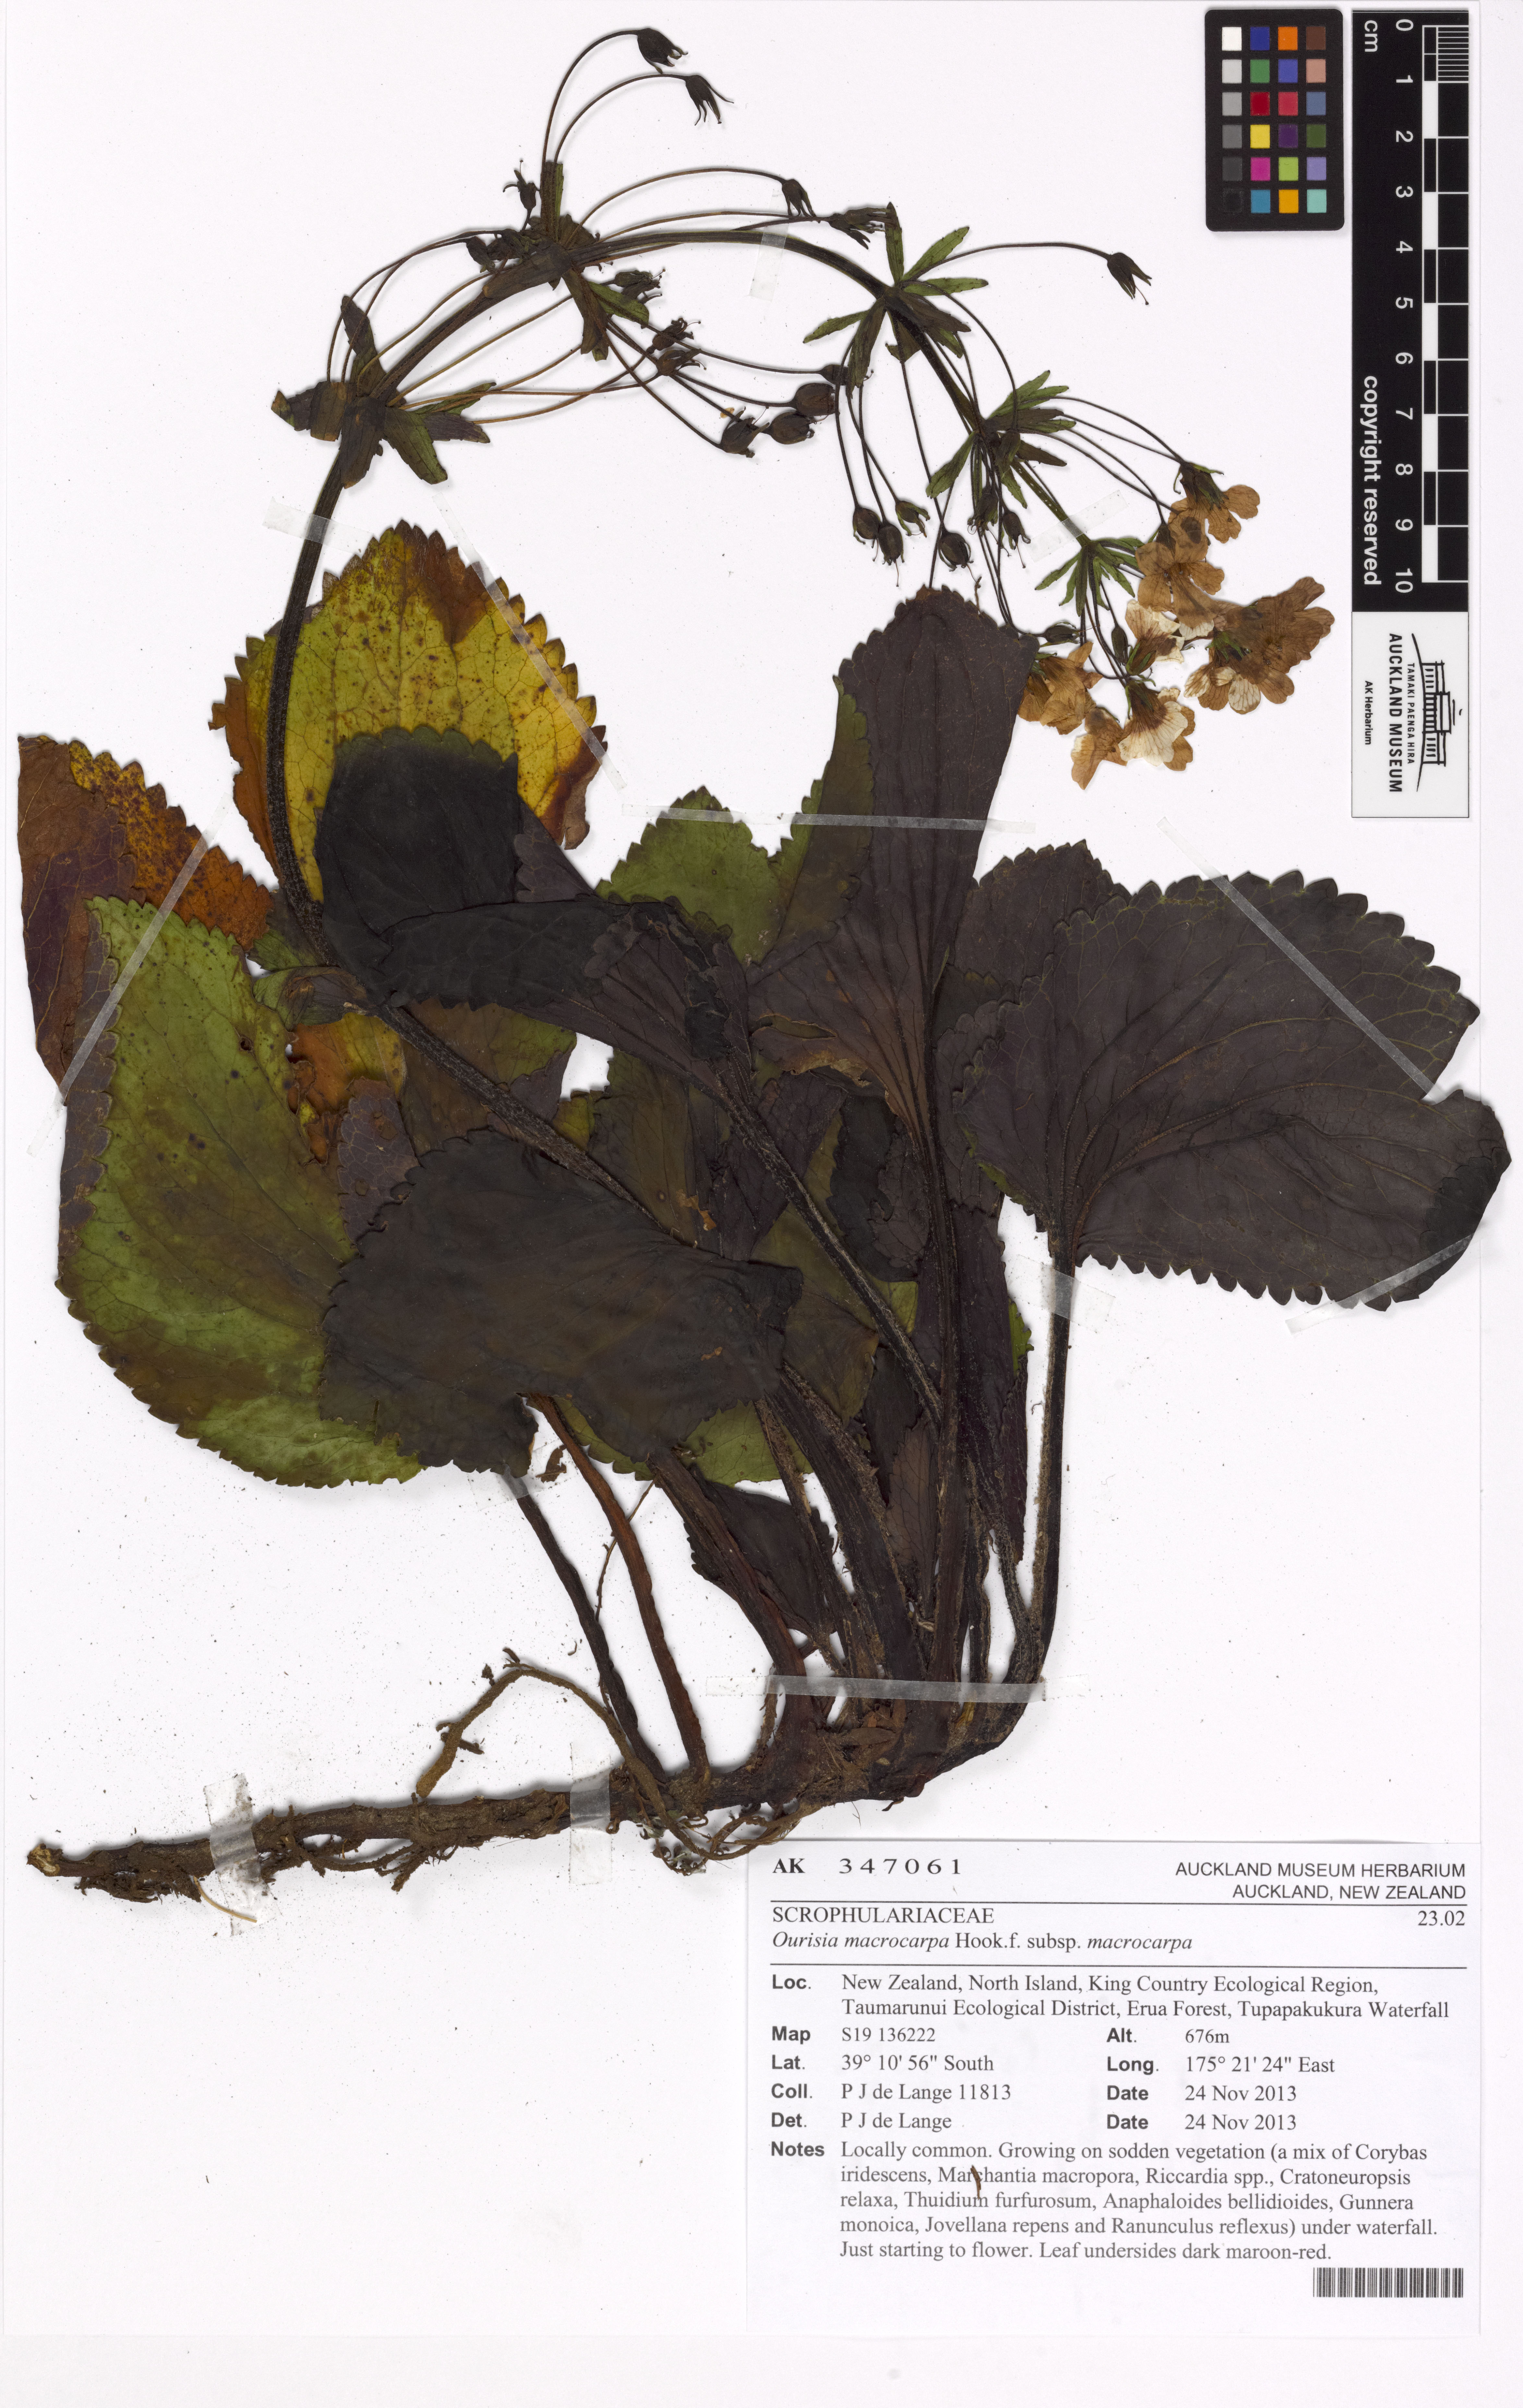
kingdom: Plantae
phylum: Tracheophyta
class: Magnoliopsida
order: Lamiales
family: Plantaginaceae
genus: Ourisia
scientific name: Ourisia macrophylla
